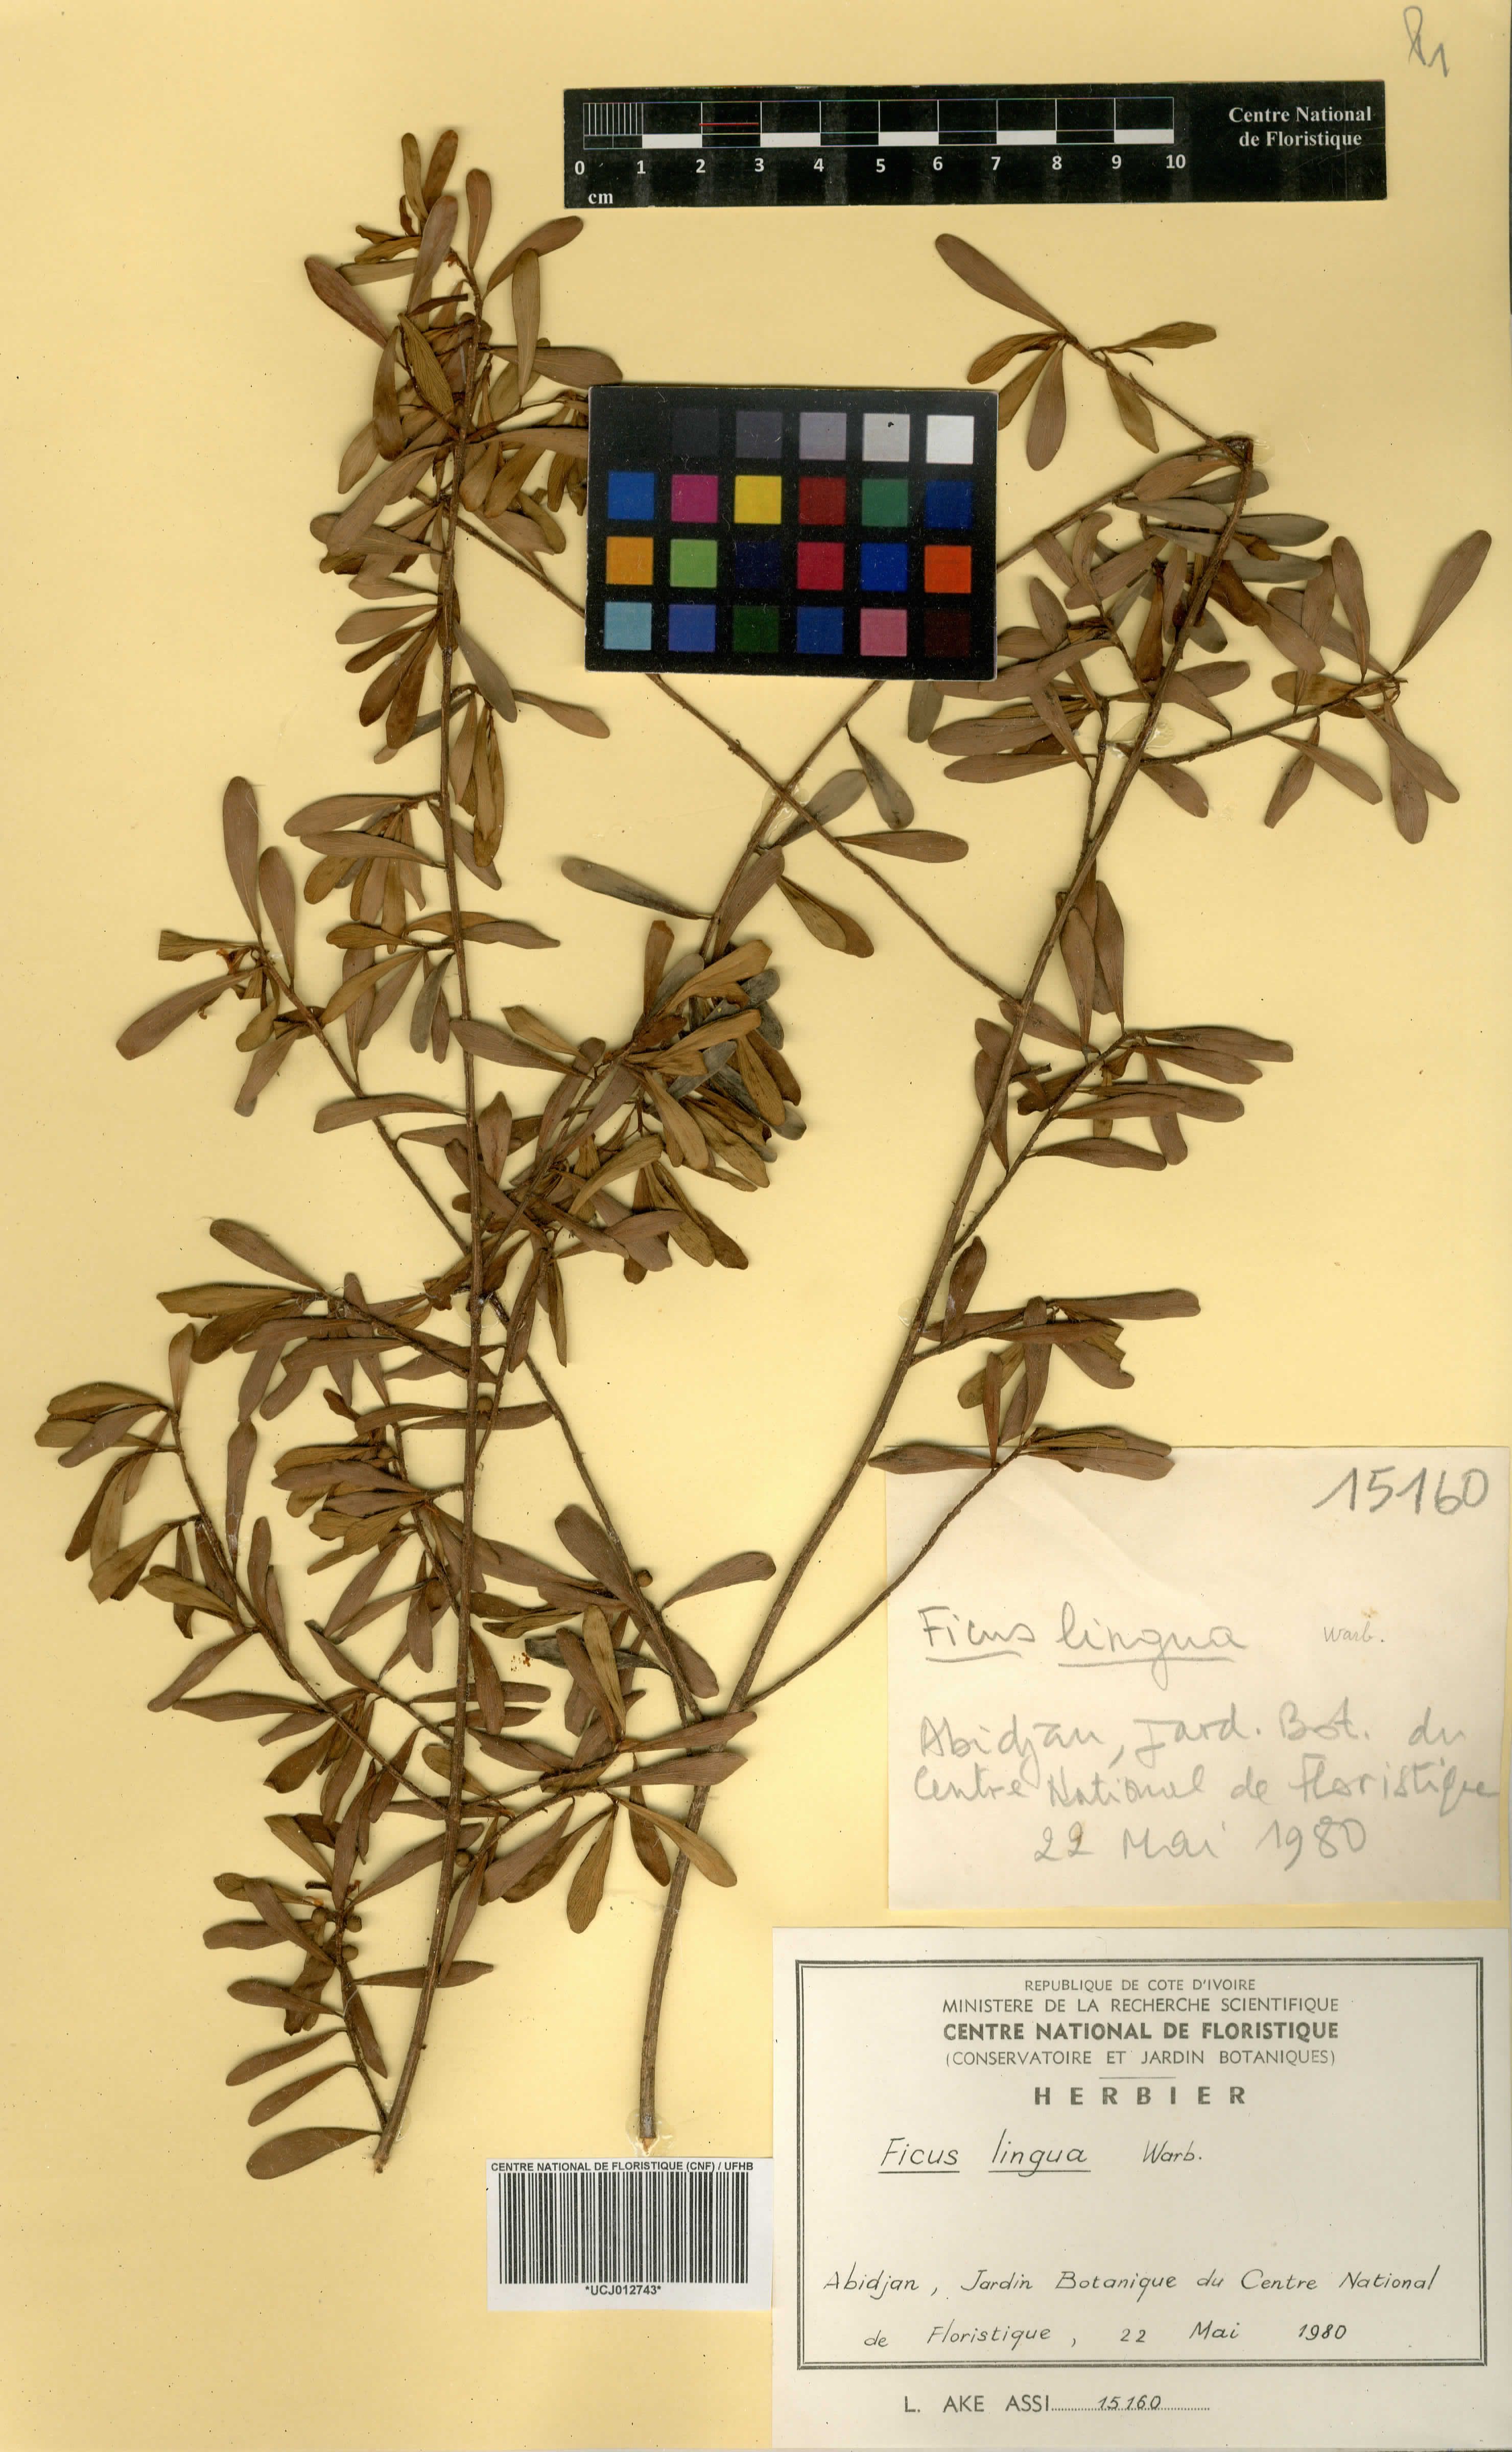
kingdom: Plantae
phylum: Tracheophyta
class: Magnoliopsida
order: Rosales
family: Moraceae
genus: Ficus
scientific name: Ficus lingua
